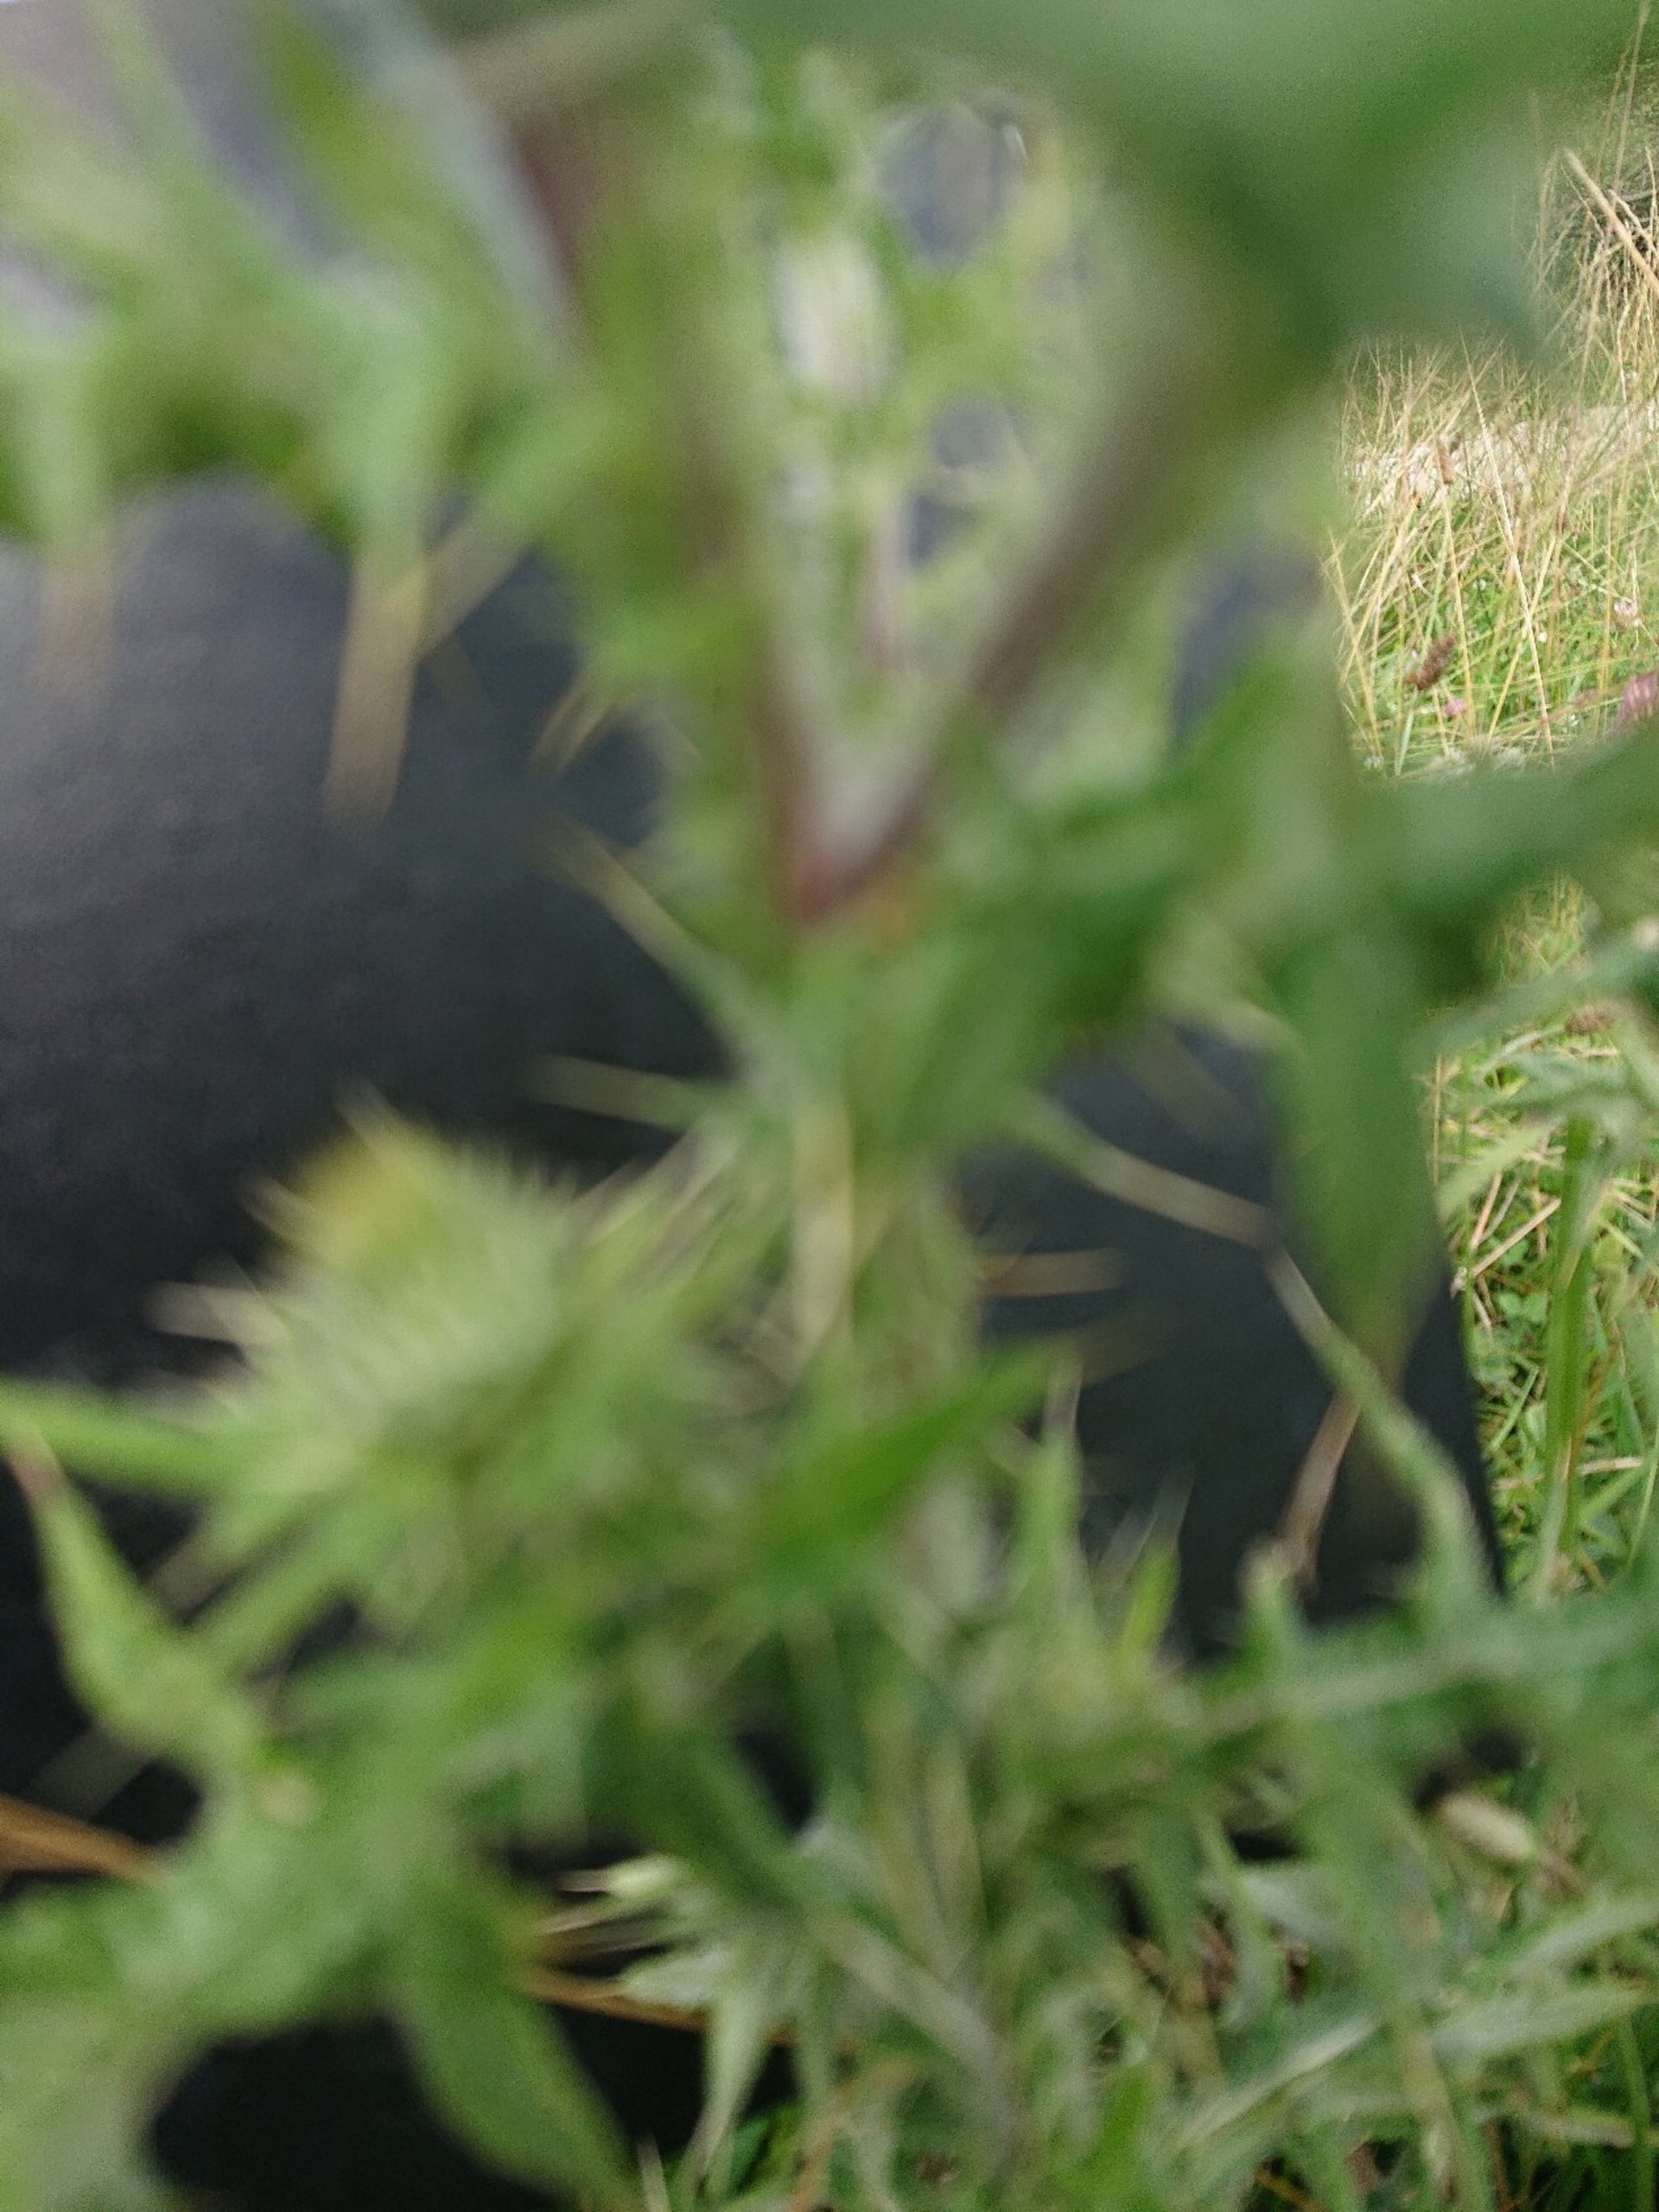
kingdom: Plantae
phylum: Tracheophyta
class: Magnoliopsida
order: Asterales
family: Asteraceae
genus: Cirsium
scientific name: Cirsium vulgare
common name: Horse-tidsel
